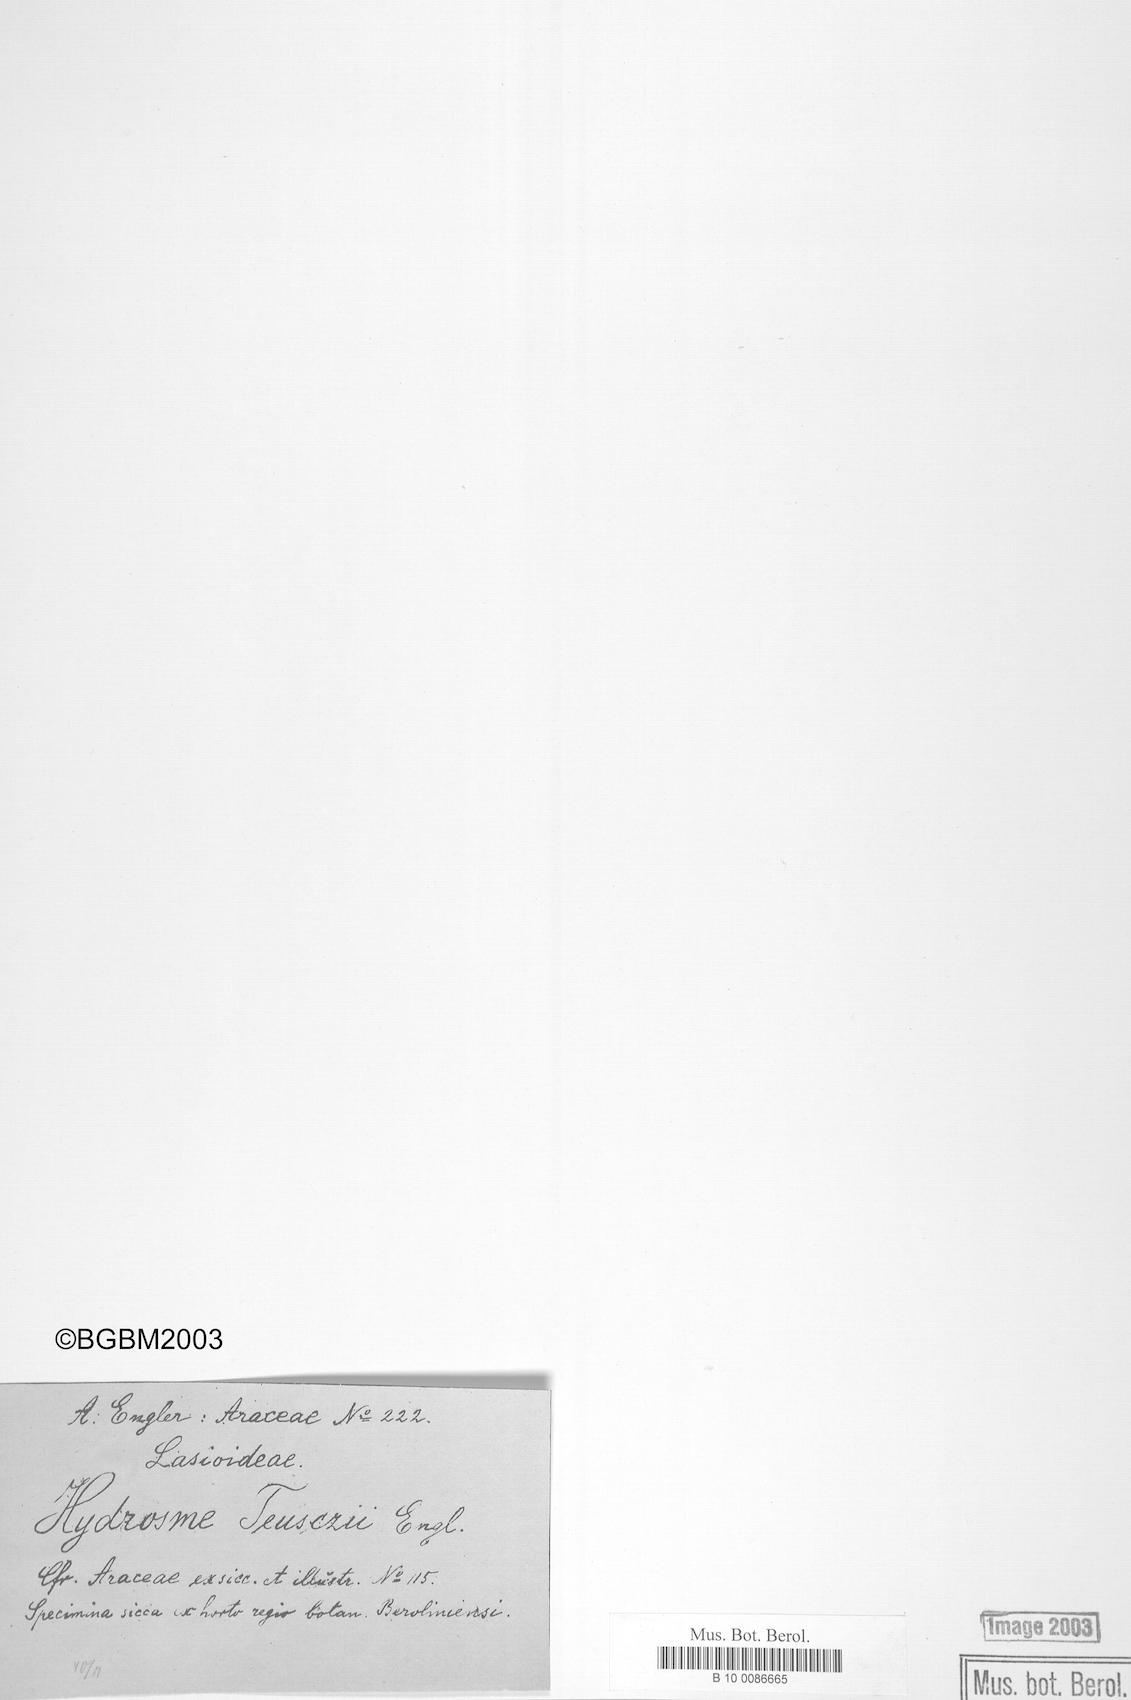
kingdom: Plantae
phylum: Tracheophyta
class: Liliopsida
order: Alismatales
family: Araceae
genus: Amorphophallus
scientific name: Amorphophallus teuszii
